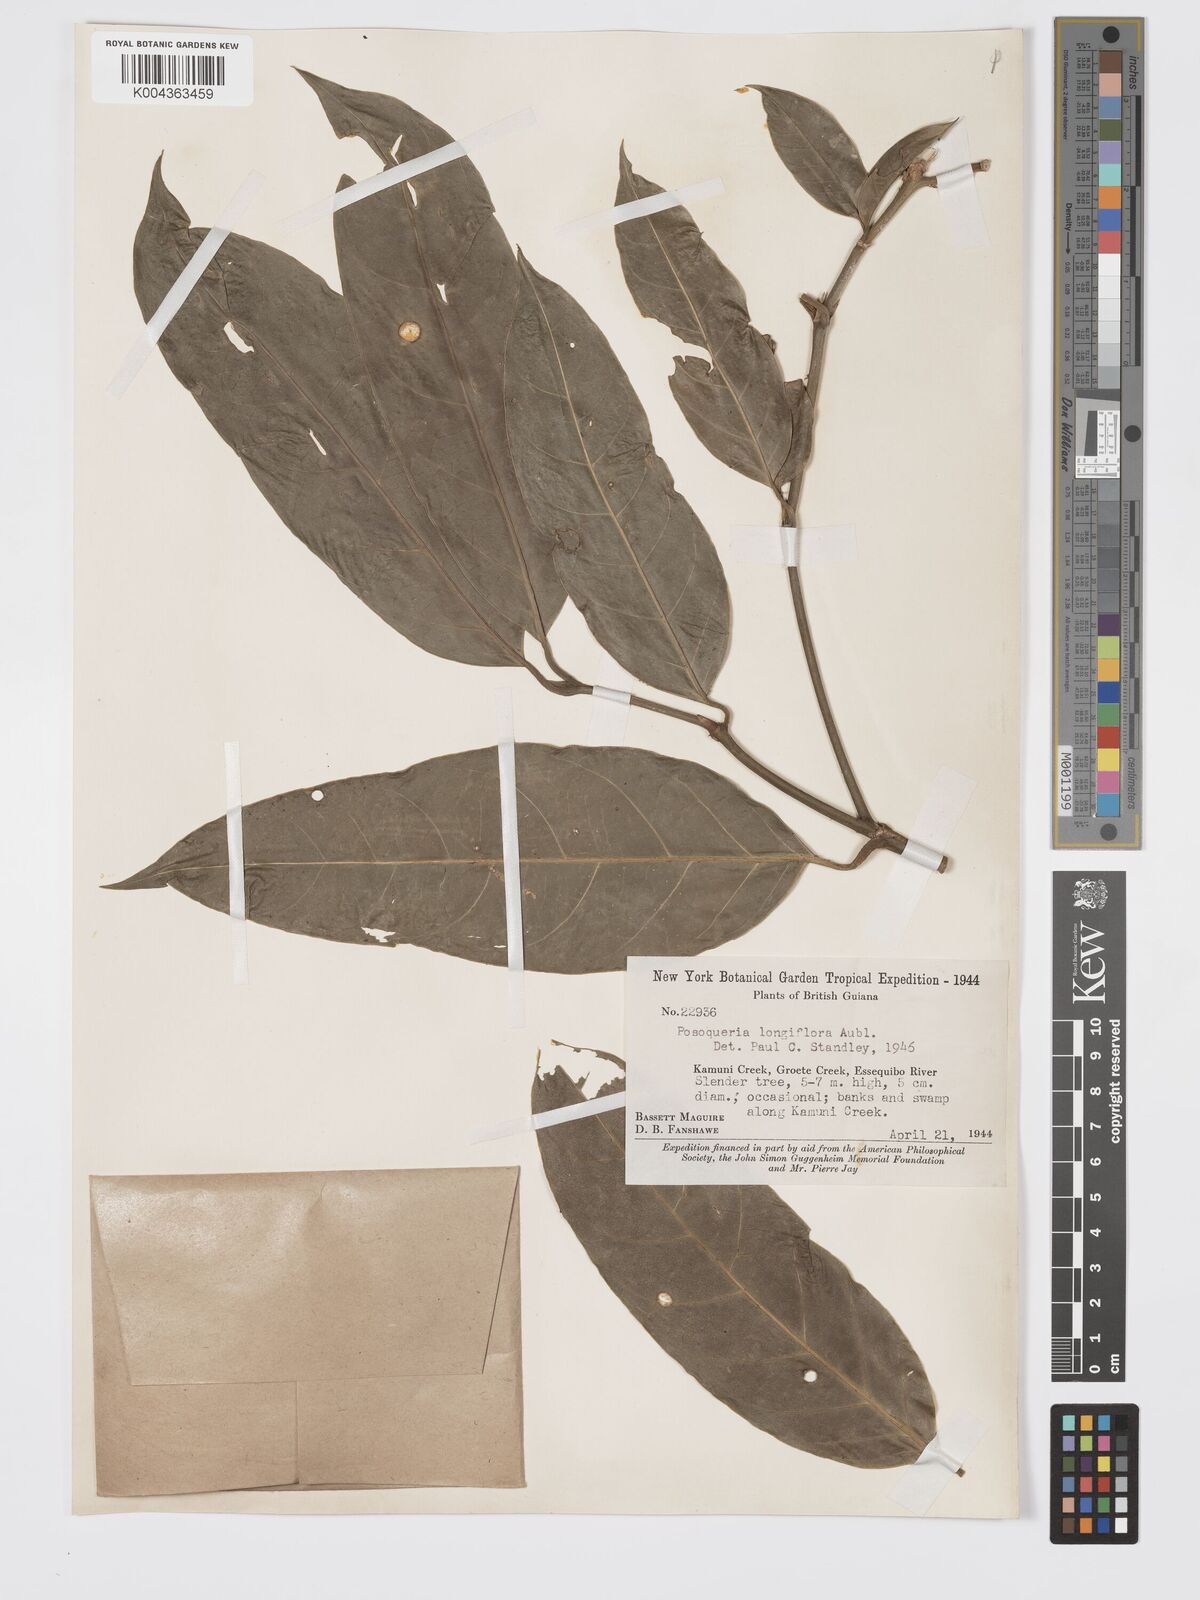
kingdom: Plantae
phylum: Tracheophyta
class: Magnoliopsida
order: Gentianales
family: Rubiaceae
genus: Posoqueria
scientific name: Posoqueria
